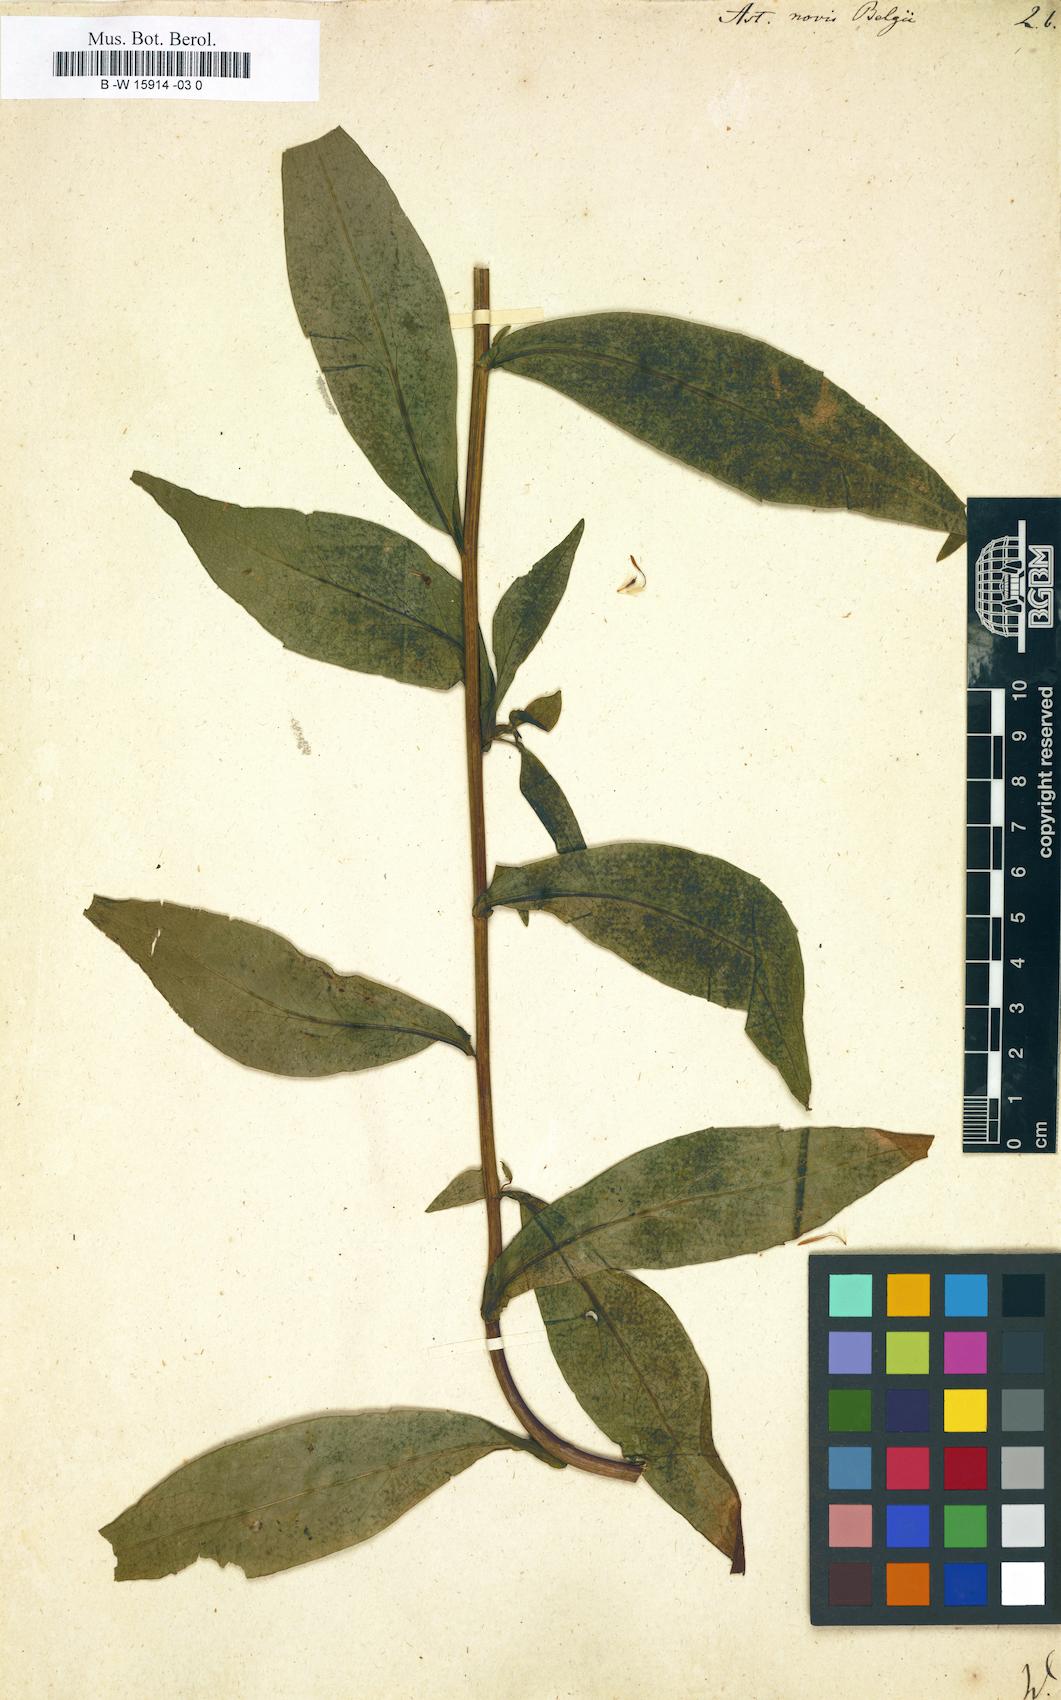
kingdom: Plantae
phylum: Tracheophyta
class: Magnoliopsida
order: Asterales
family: Asteraceae
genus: Symphyotrichum
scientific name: Symphyotrichum novi-belgii
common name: Michaelmas daisy
